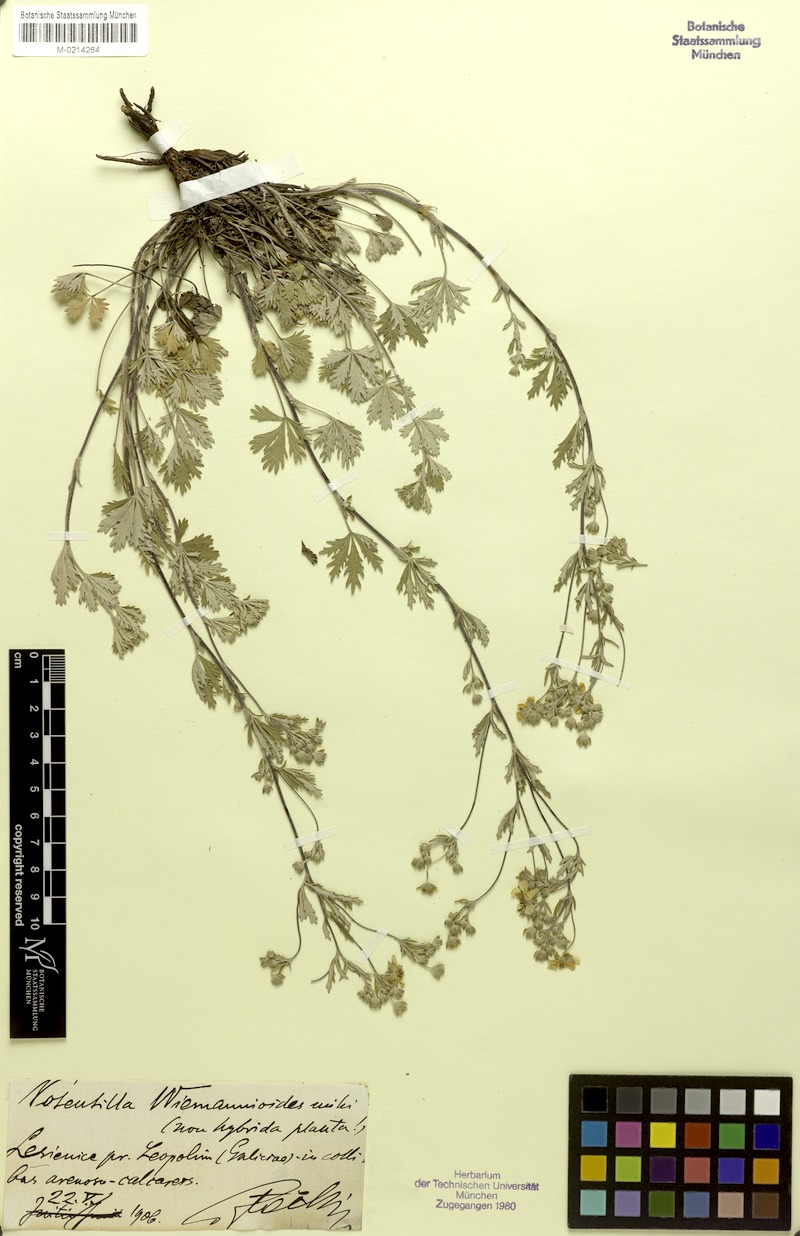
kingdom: Plantae
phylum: Tracheophyta
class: Magnoliopsida
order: Rosales
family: Rosaceae
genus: Potentilla
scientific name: Potentilla collina
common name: Palmleaf cinquefoil
